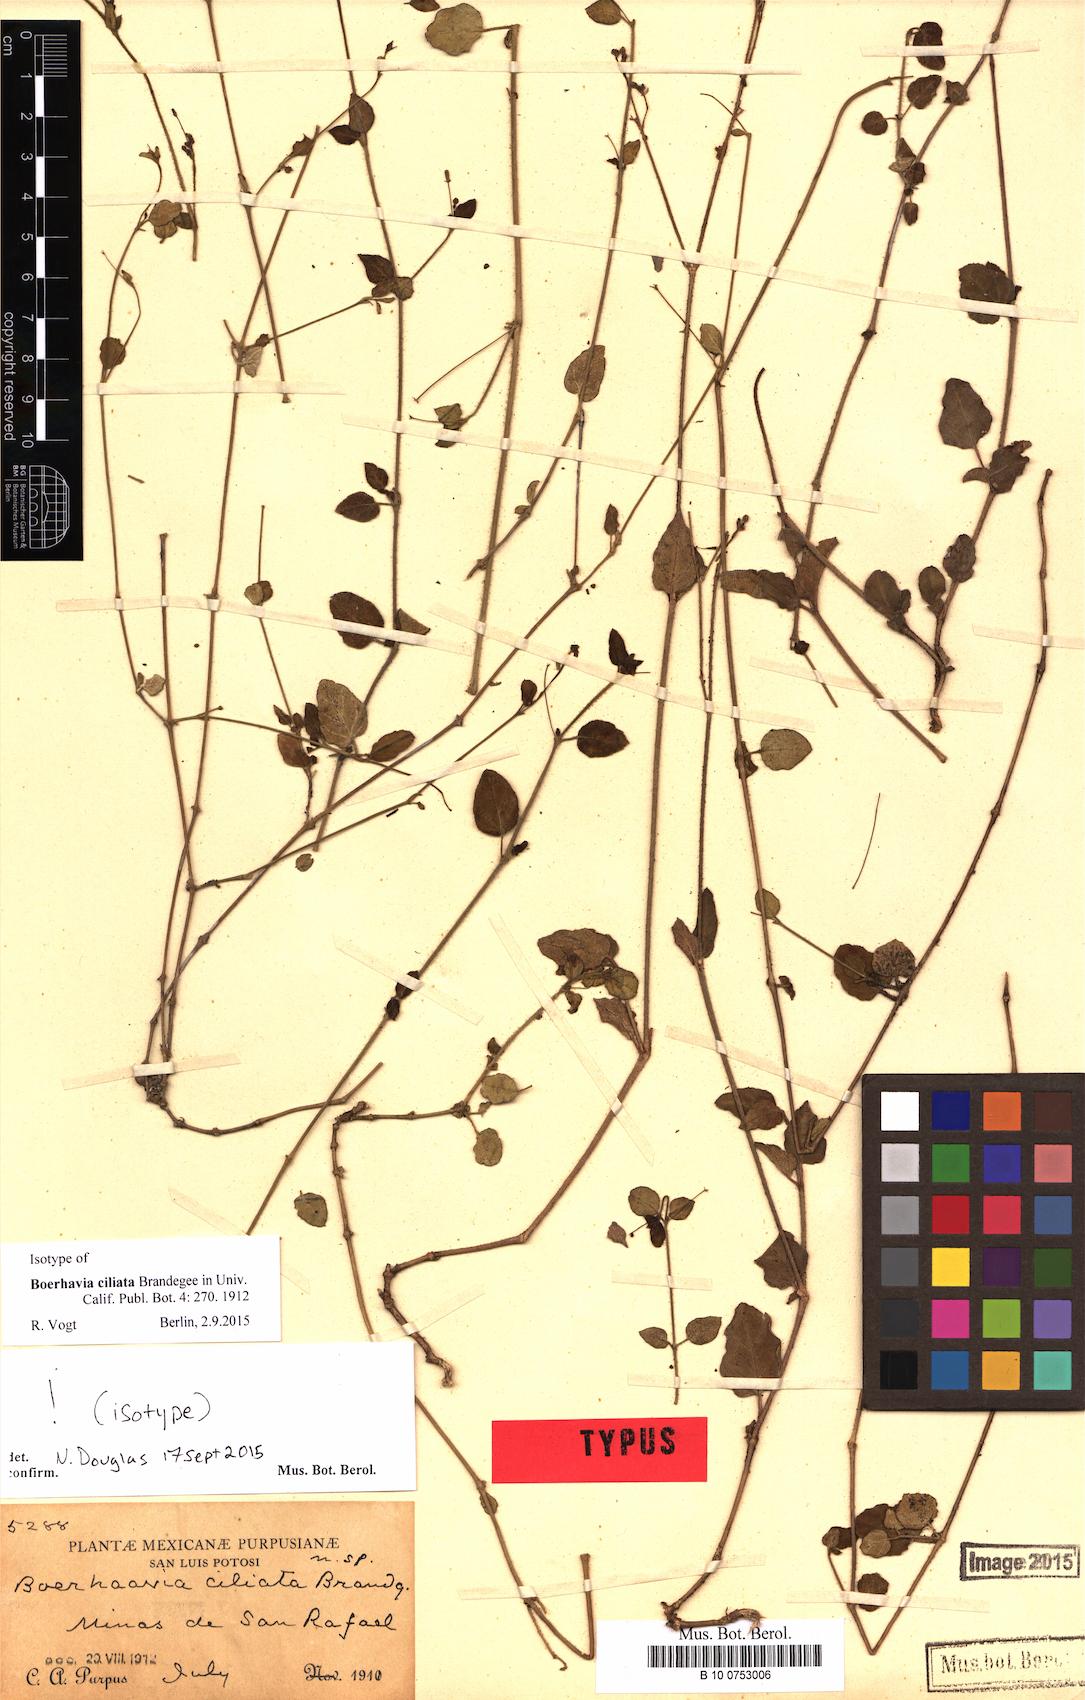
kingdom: Plantae
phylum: Tracheophyta
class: Magnoliopsida
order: Caryophyllales
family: Nyctaginaceae
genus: Boerhavia
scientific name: Boerhavia ciliata
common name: Mathis' spiderling
